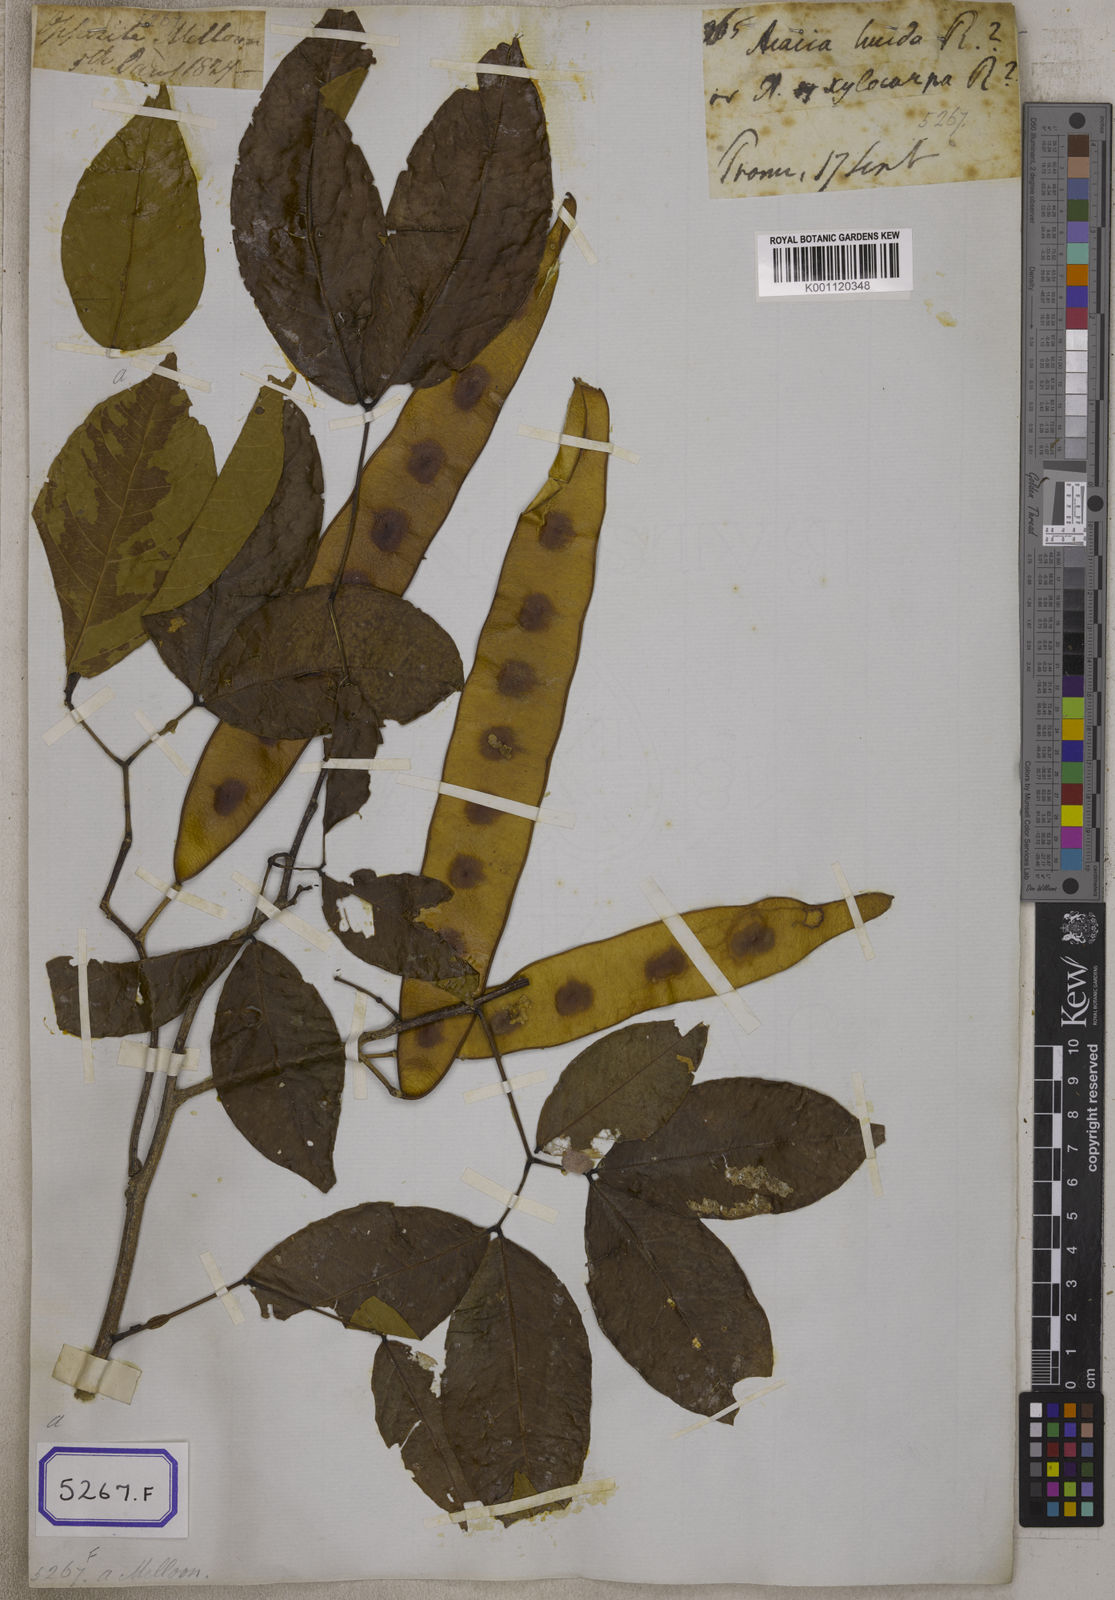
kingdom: Plantae
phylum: Tracheophyta
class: Magnoliopsida
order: Fabales
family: Fabaceae
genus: Albizia
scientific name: Albizia lucidior
